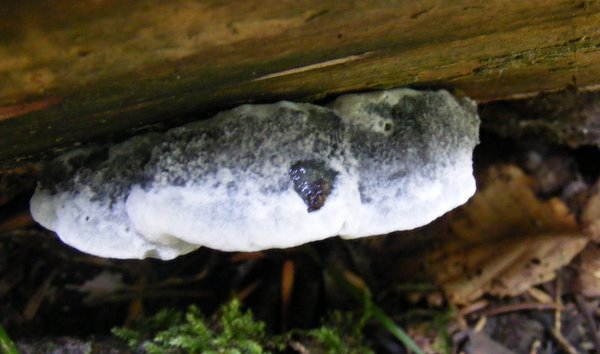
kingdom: Fungi
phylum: Basidiomycota
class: Agaricomycetes
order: Polyporales
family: Polyporaceae
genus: Cyanosporus
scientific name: Cyanosporus caesius
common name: blålig kødporesvamp
